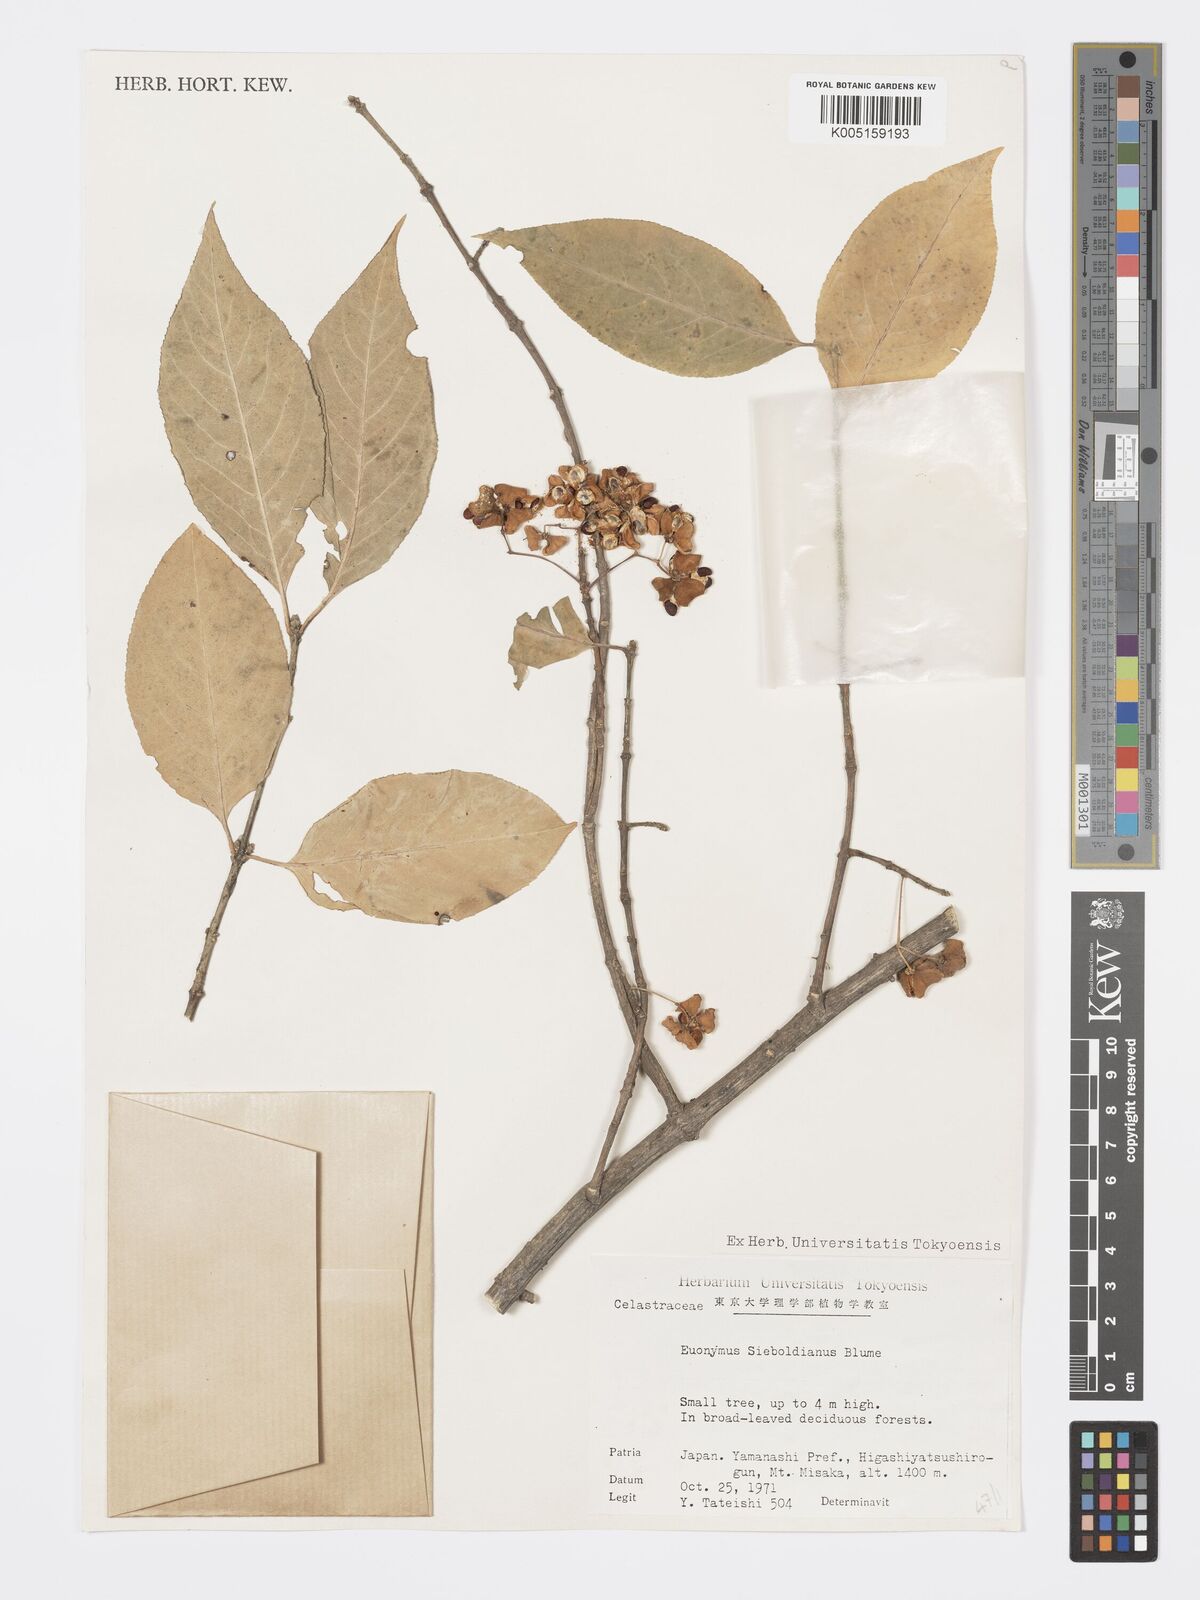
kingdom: Plantae
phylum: Tracheophyta
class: Magnoliopsida
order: Celastrales
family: Celastraceae
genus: Euonymus
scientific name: Euonymus hamiltonianus
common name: Hamilton's spindletree
